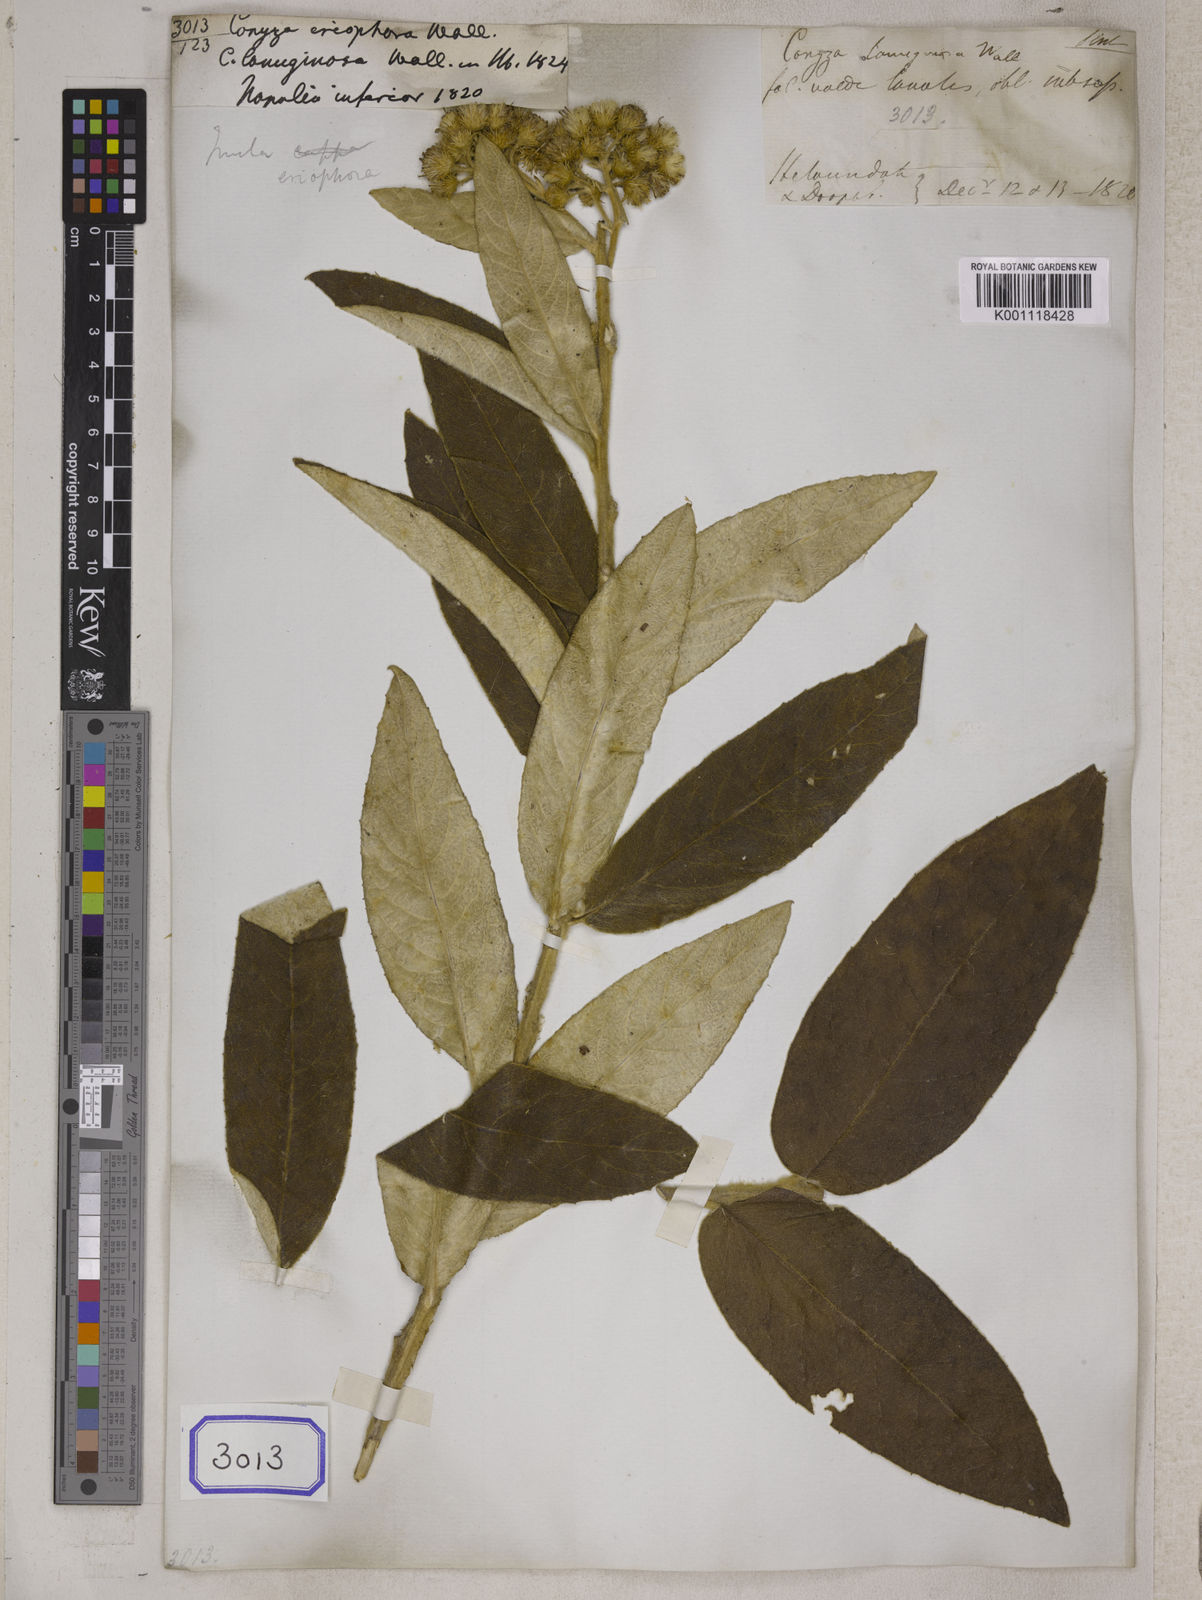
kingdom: Plantae
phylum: Tracheophyta
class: Magnoliopsida
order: Asterales
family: Asteraceae
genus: Duhaldea
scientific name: Duhaldea cappa
